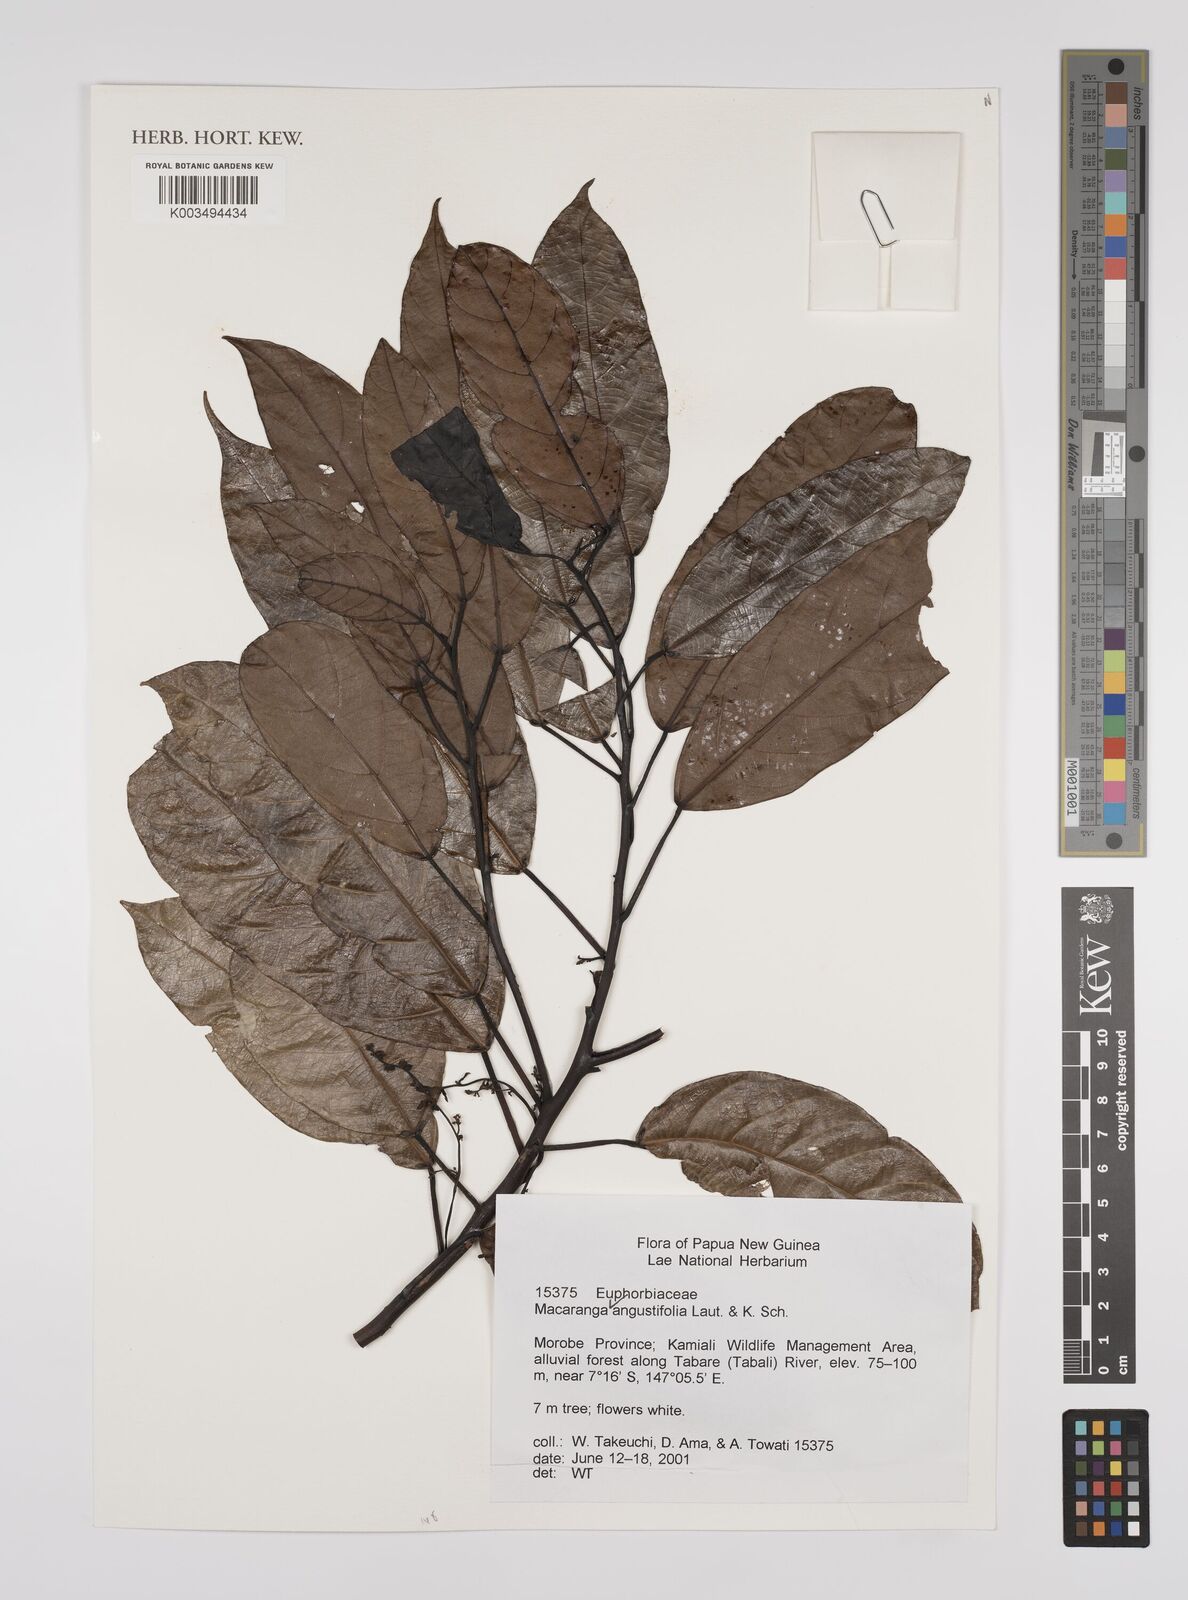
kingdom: Plantae
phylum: Tracheophyta
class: Magnoliopsida
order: Malpighiales
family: Euphorbiaceae
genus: Macaranga
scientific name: Macaranga angustifolia
